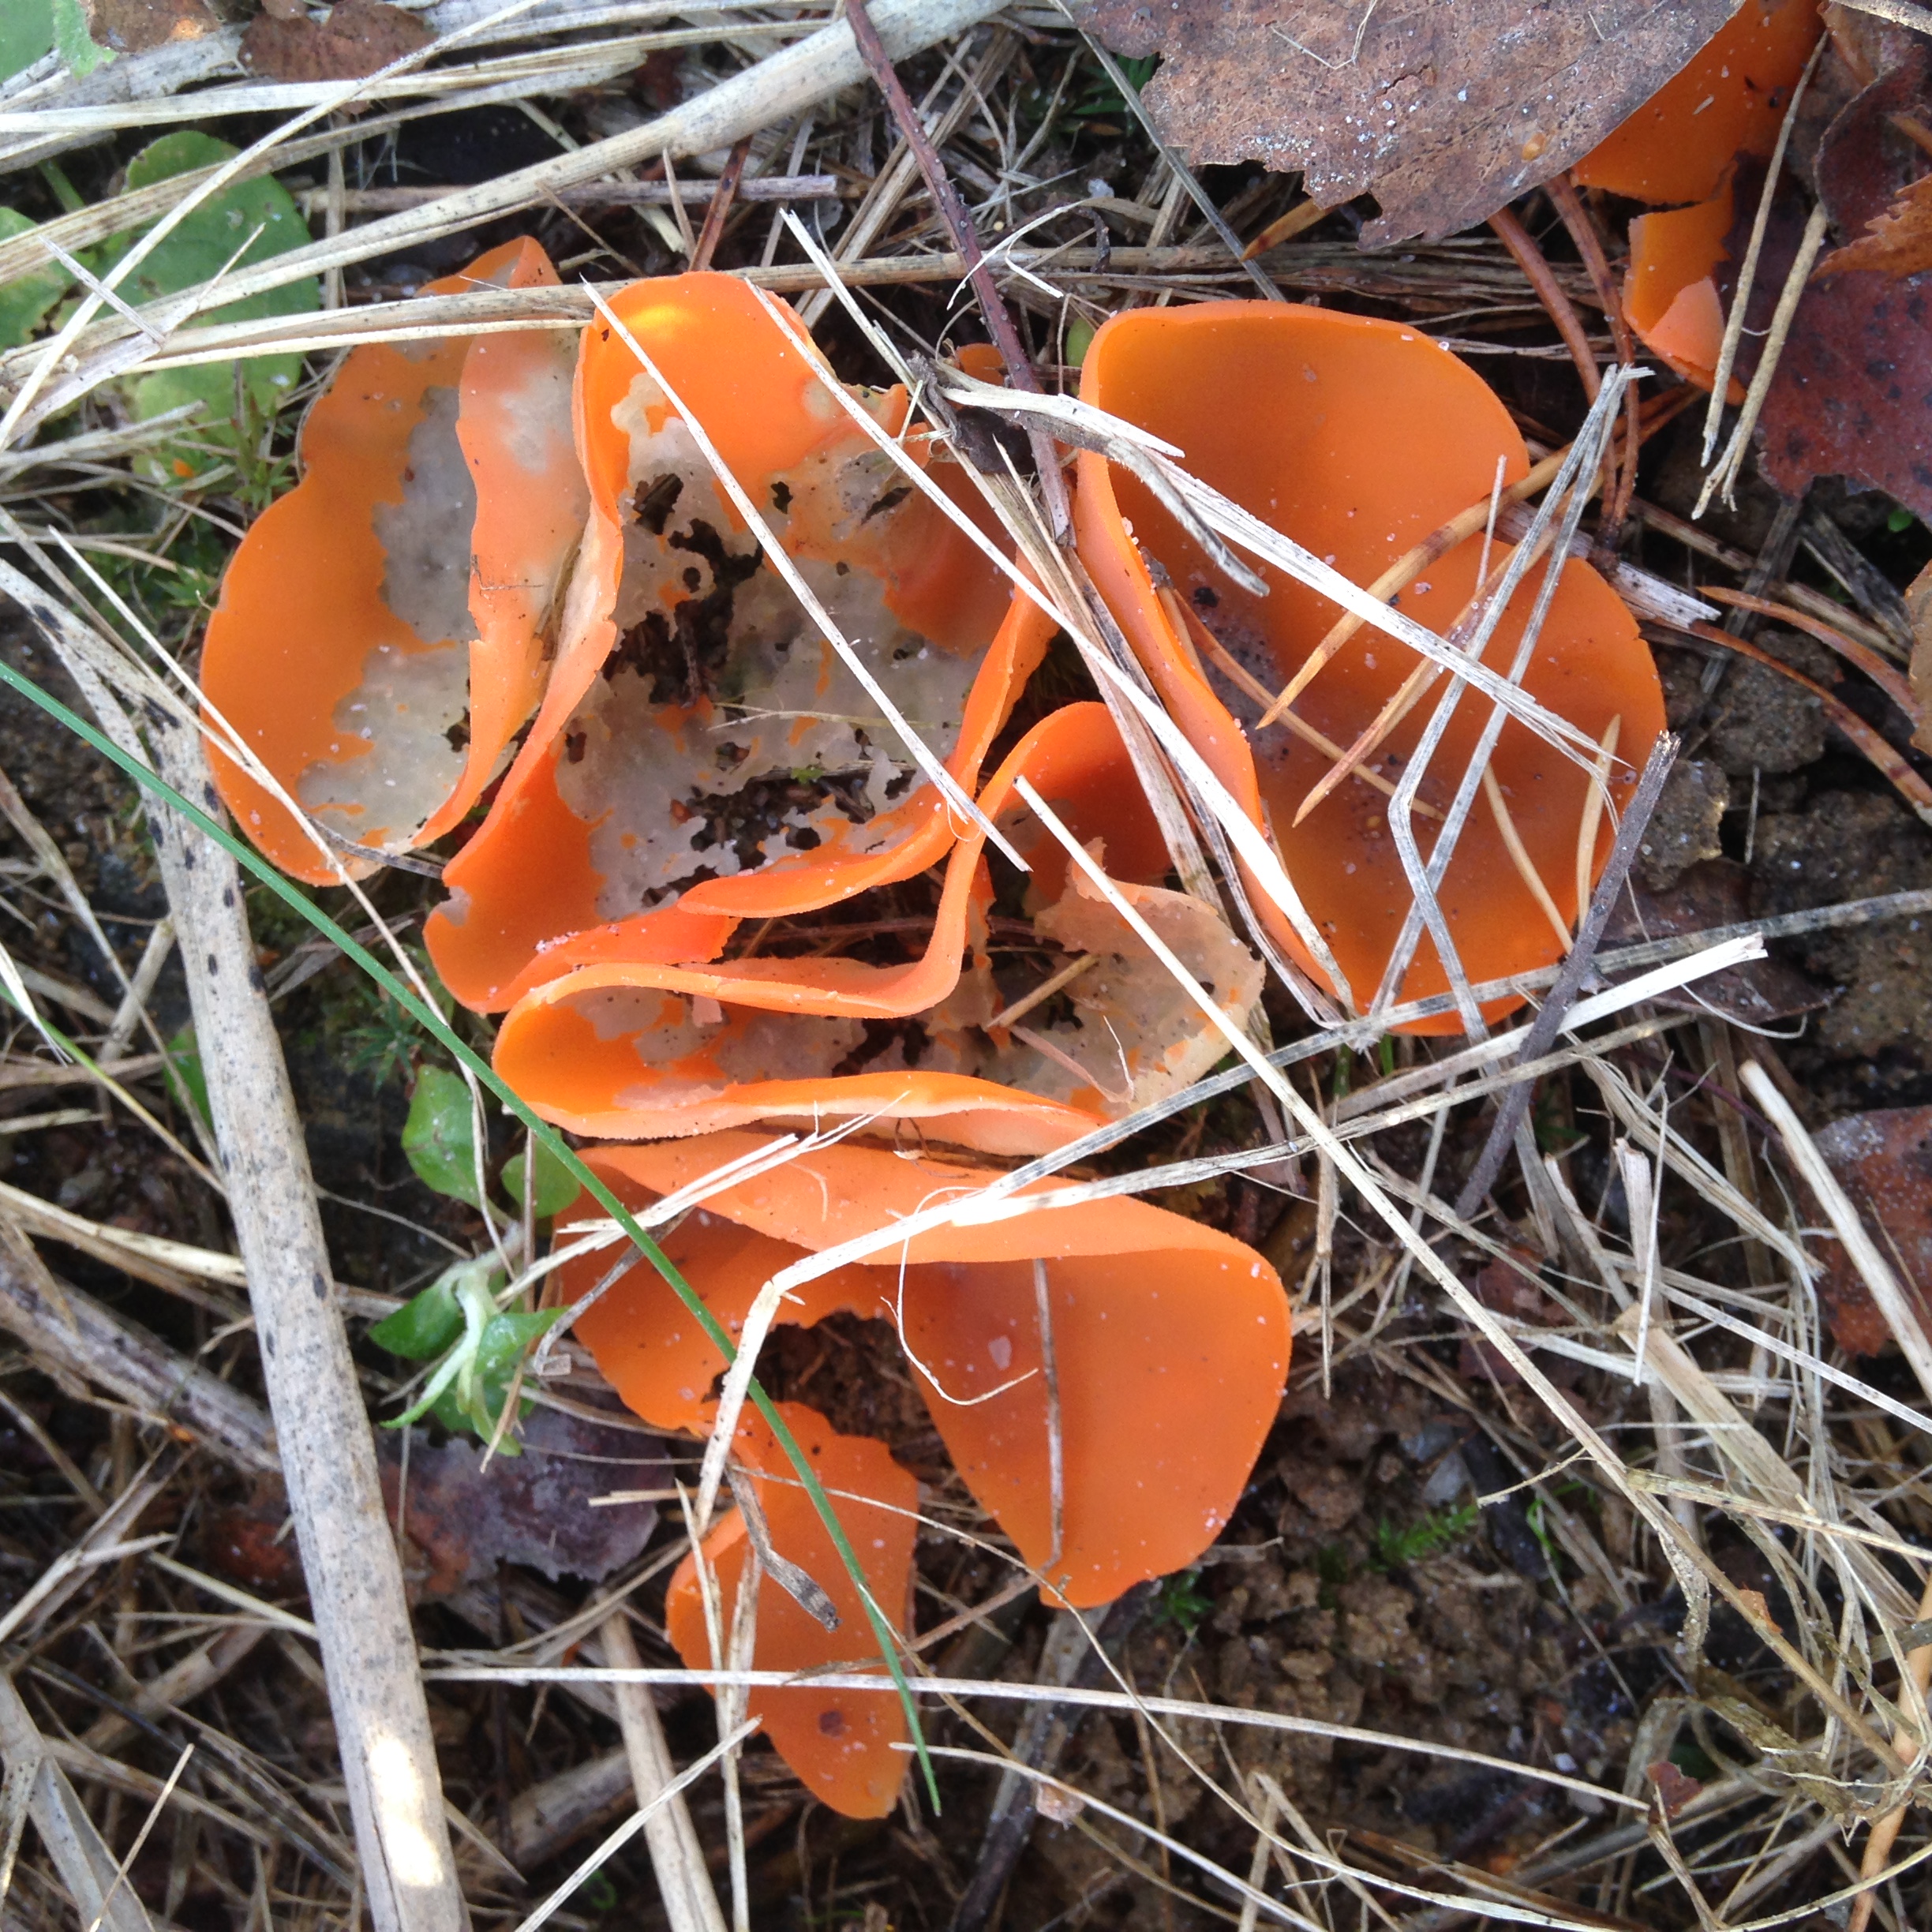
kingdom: Fungi
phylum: Ascomycota
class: Pezizomycetes
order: Pezizales
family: Pyronemataceae
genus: Aleuria
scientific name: Aleuria aurantia
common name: Orange peel fungus
